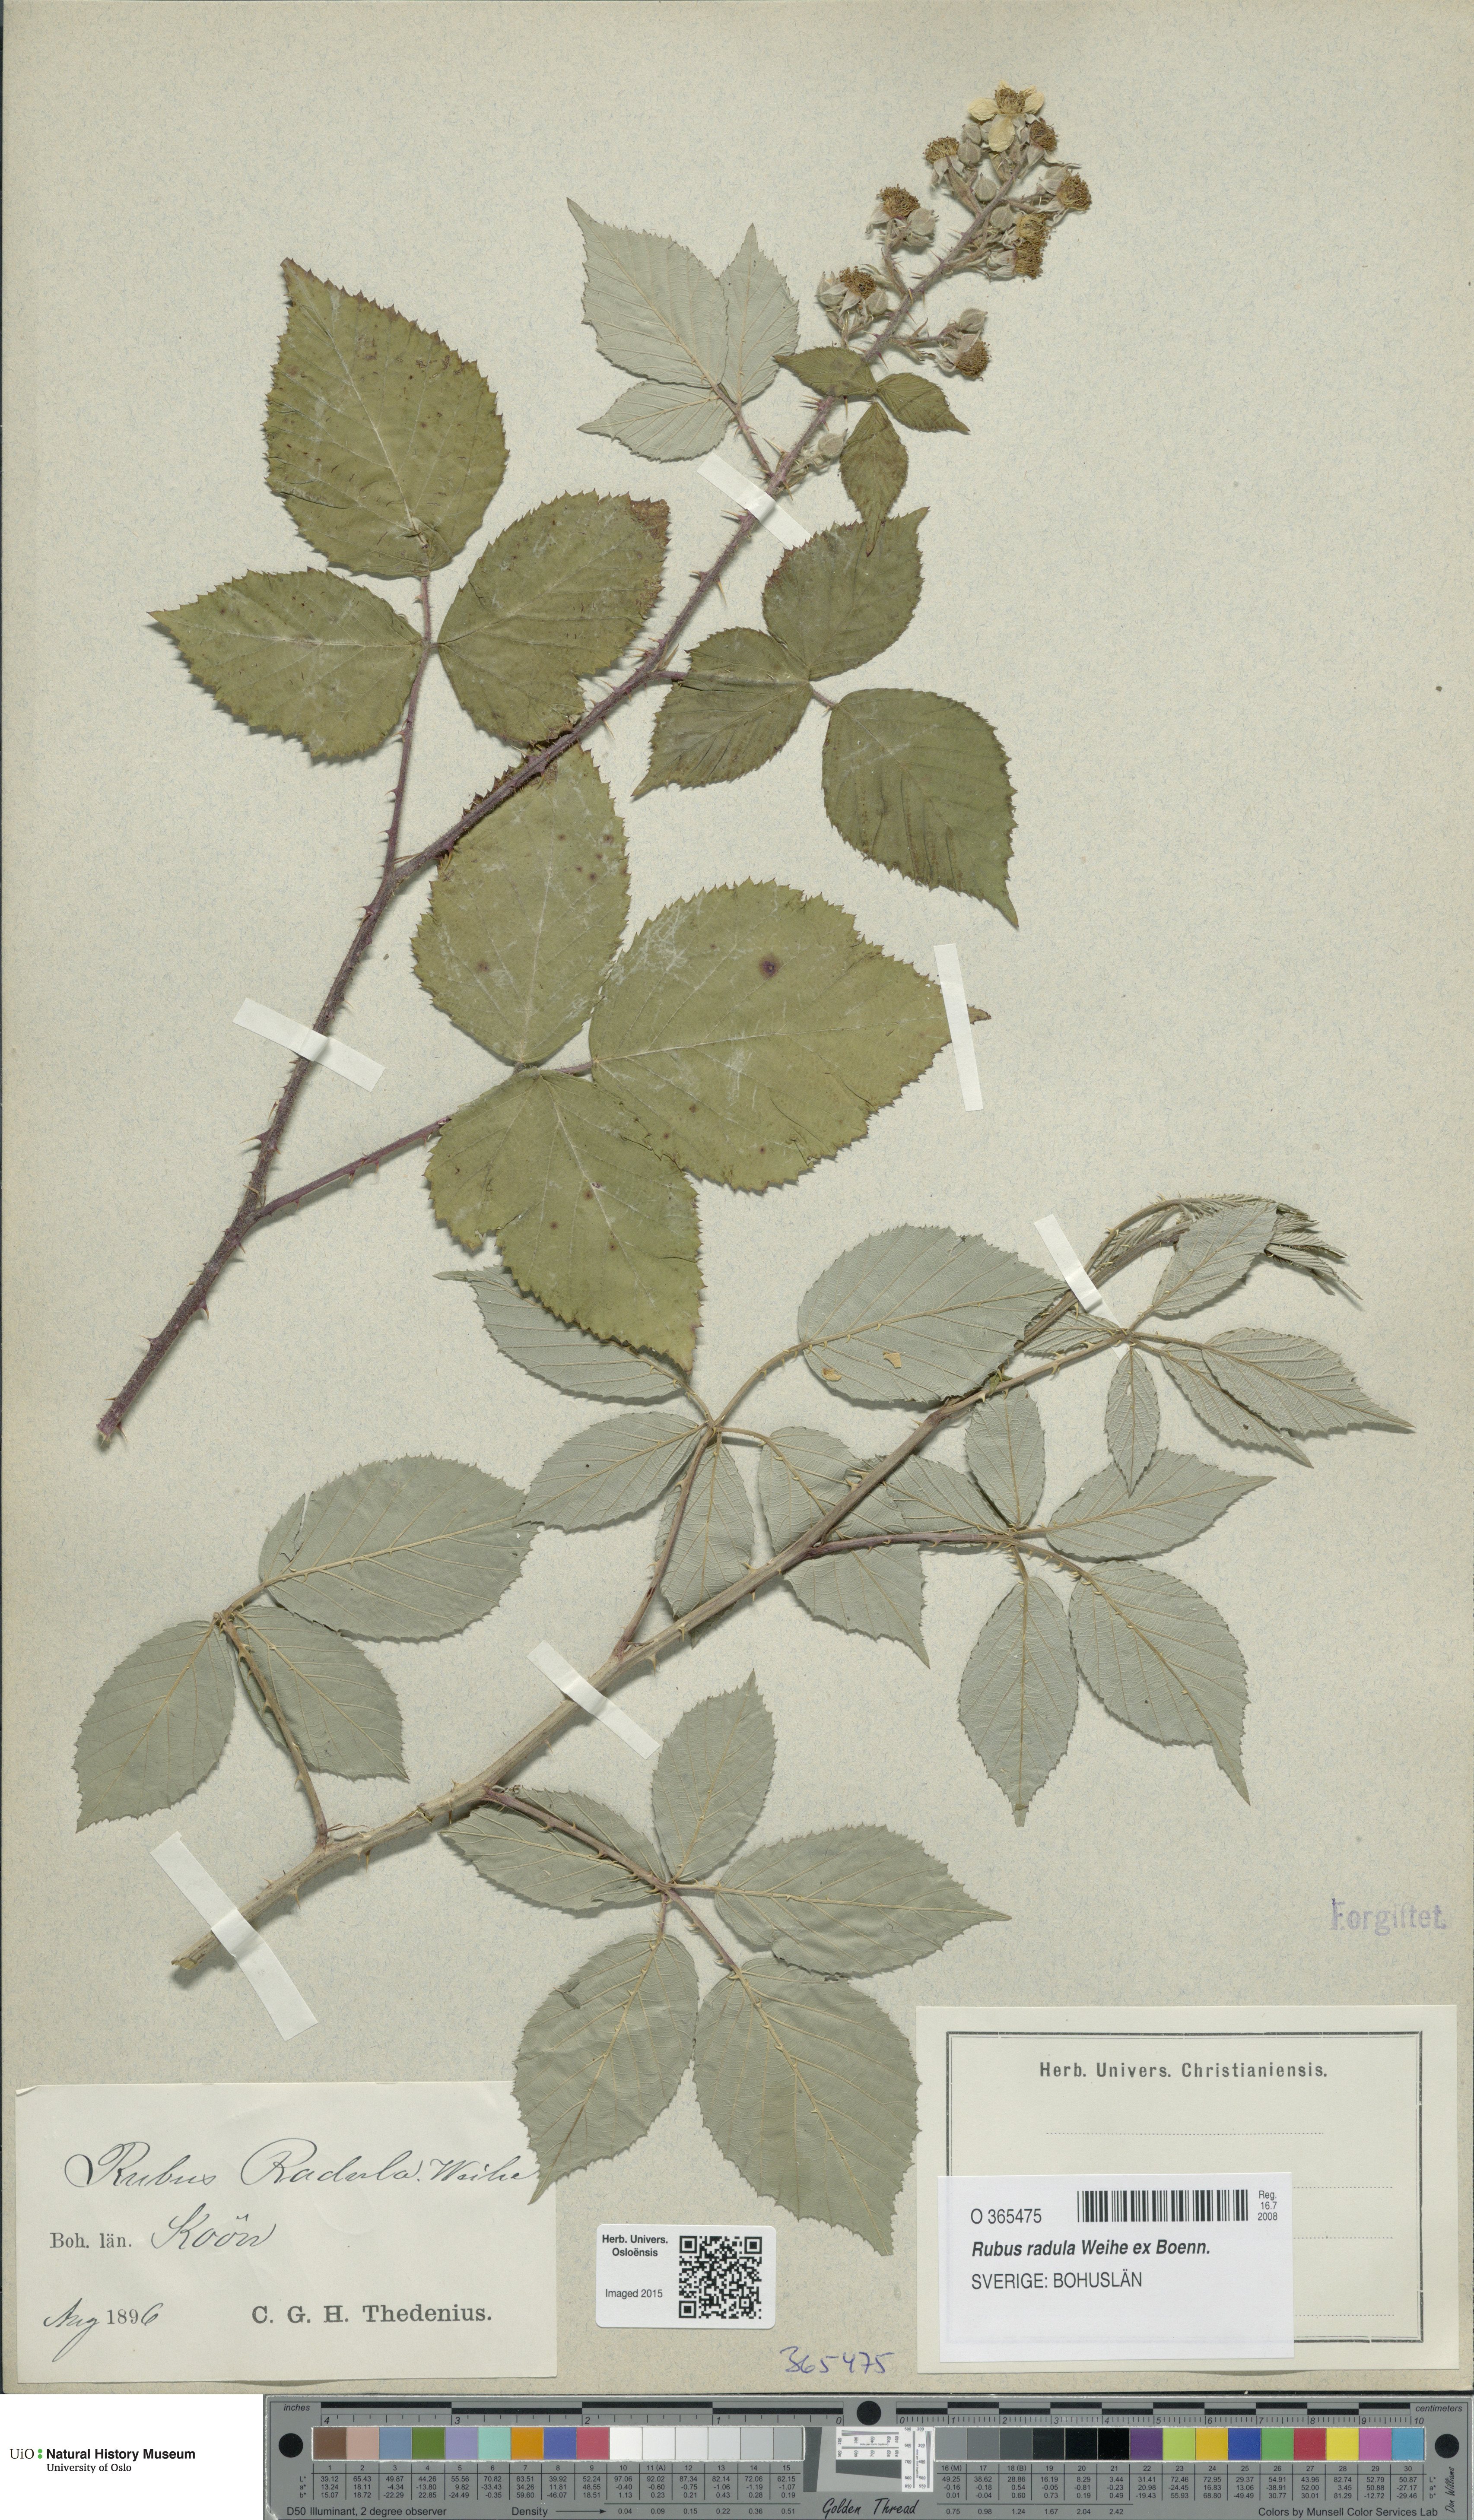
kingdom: Plantae
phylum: Tracheophyta
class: Magnoliopsida
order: Rosales
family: Rosaceae
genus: Rubus
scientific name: Rubus radula
